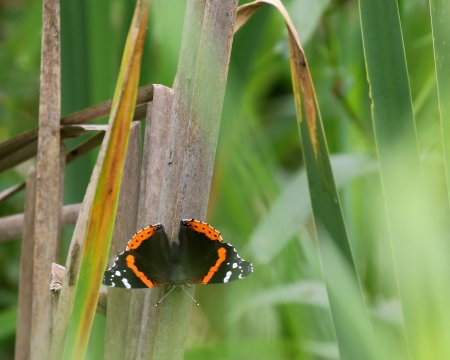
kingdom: Animalia
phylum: Arthropoda
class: Insecta
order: Lepidoptera
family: Nymphalidae
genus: Vanessa
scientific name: Vanessa atalanta
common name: Red Admiral
